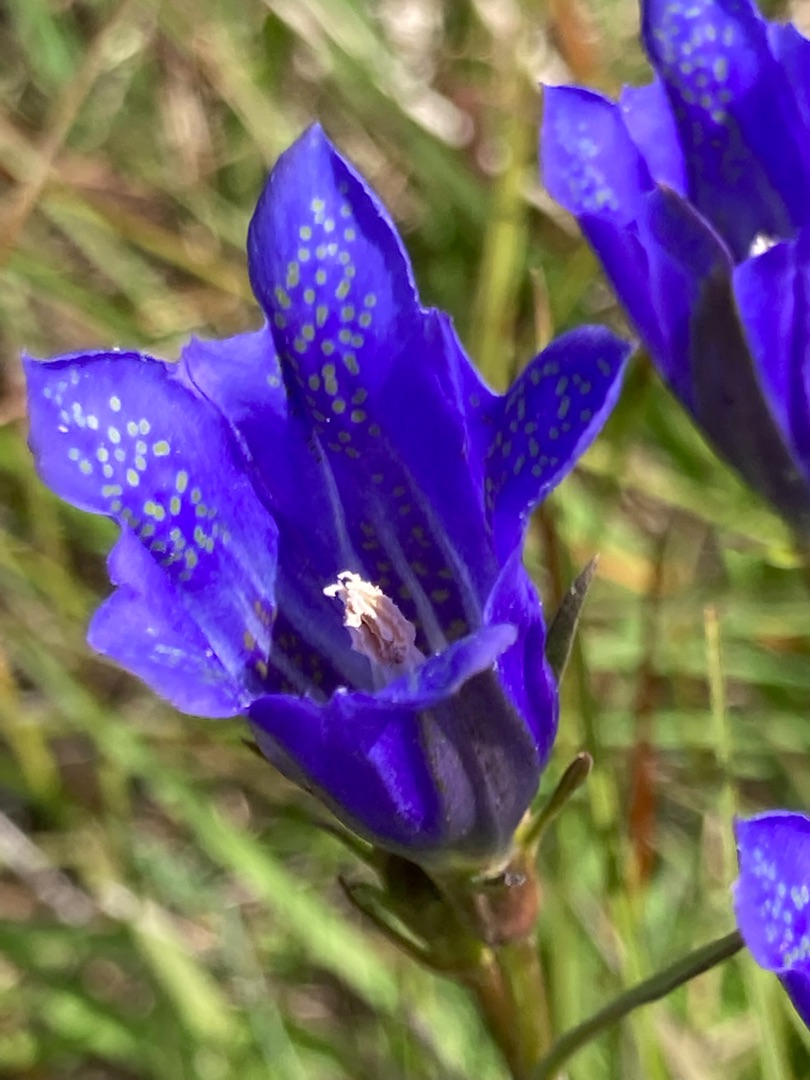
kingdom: Plantae
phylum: Tracheophyta
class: Magnoliopsida
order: Gentianales
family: Gentianaceae
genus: Gentiana
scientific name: Gentiana pneumonanthe
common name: Klokke-ensian
